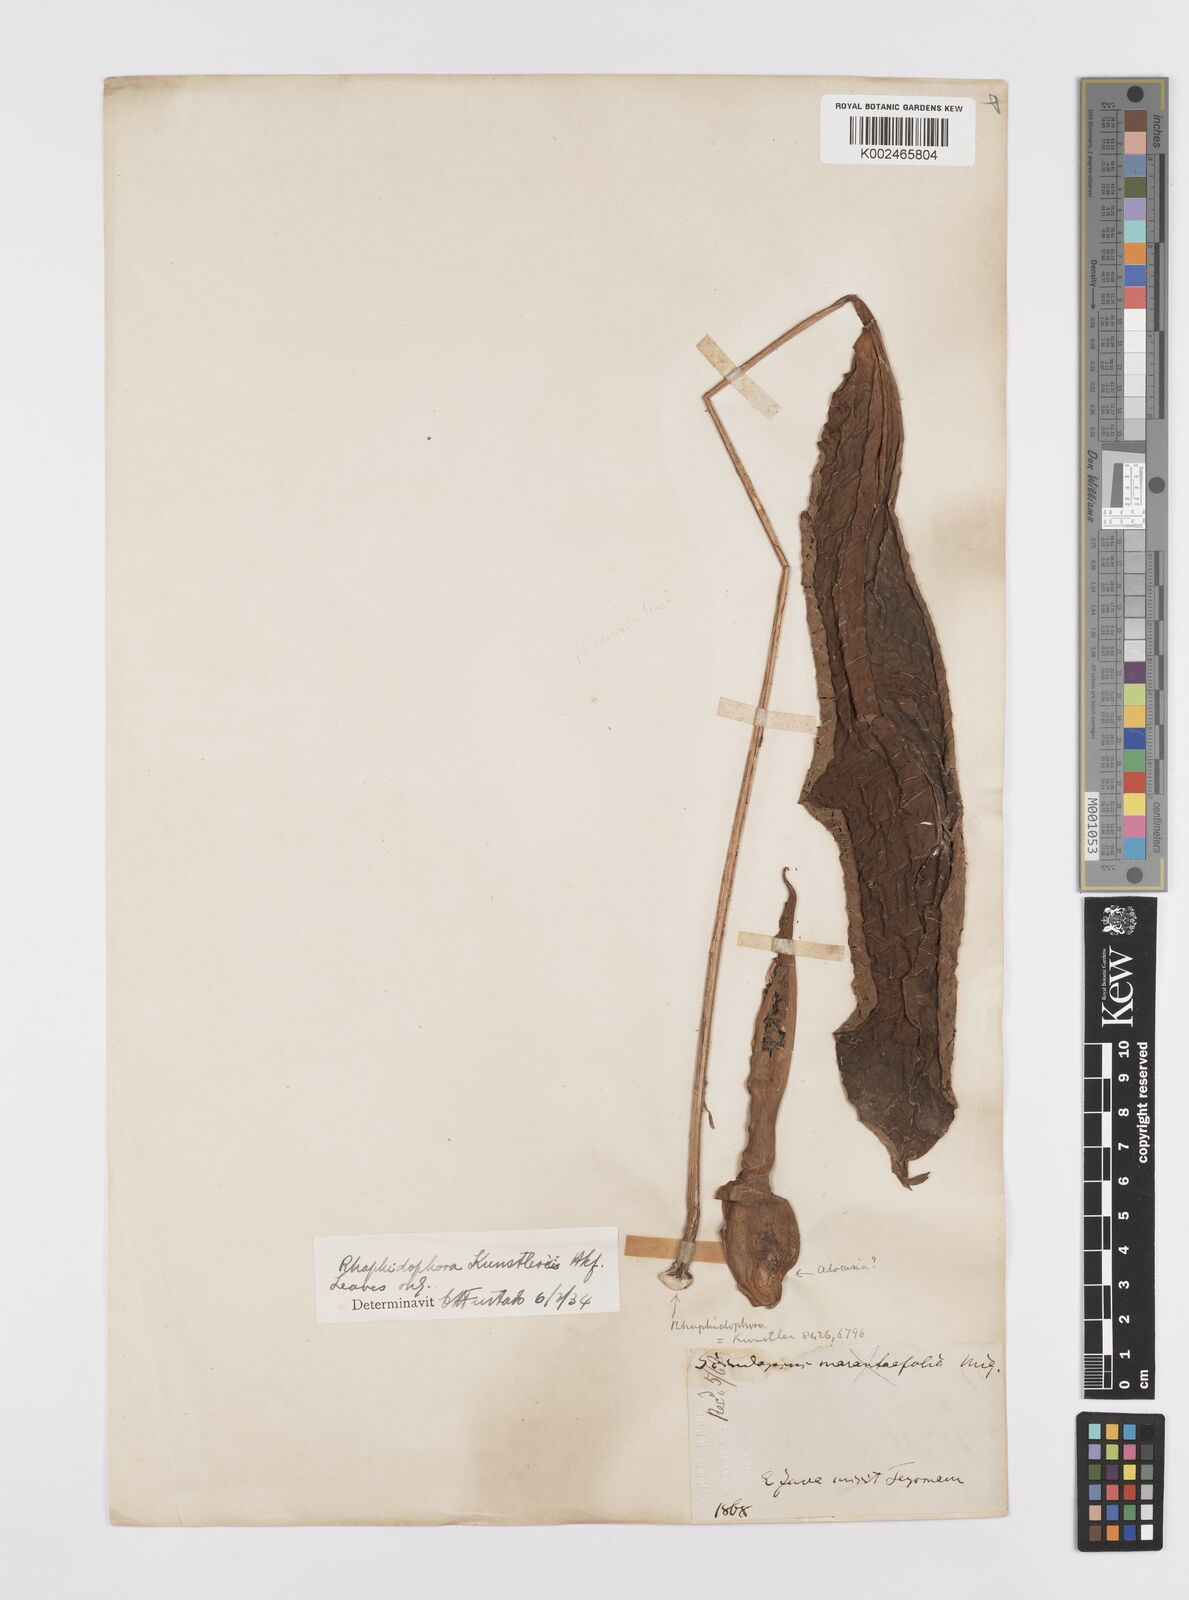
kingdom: Plantae
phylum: Tracheophyta
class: Liliopsida
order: Alismatales
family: Araceae
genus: Rhaphidophora
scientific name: Rhaphidophora sylvestris
